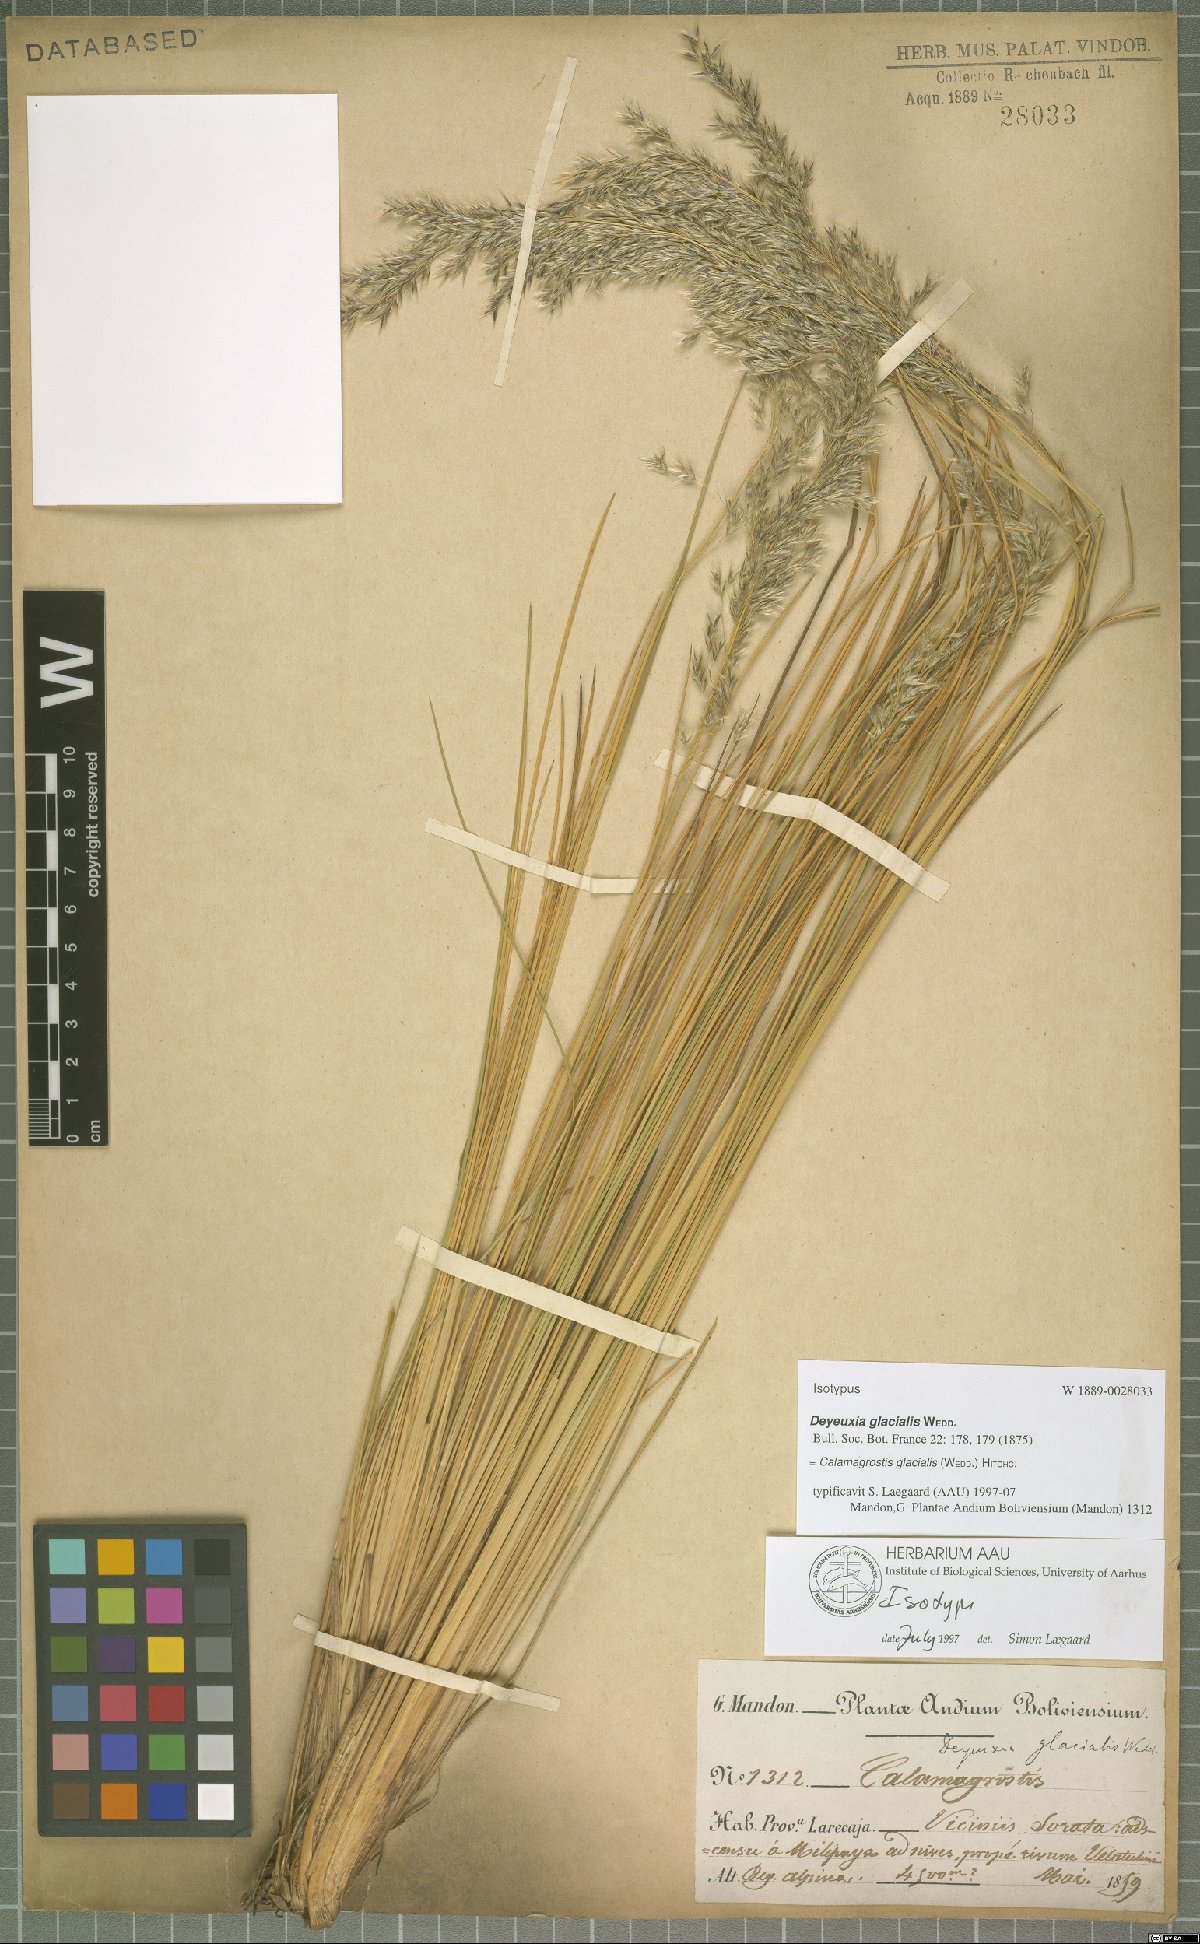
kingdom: Plantae
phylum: Tracheophyta
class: Liliopsida
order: Poales
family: Poaceae
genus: Cinnagrostis
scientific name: Cinnagrostis glacialis
